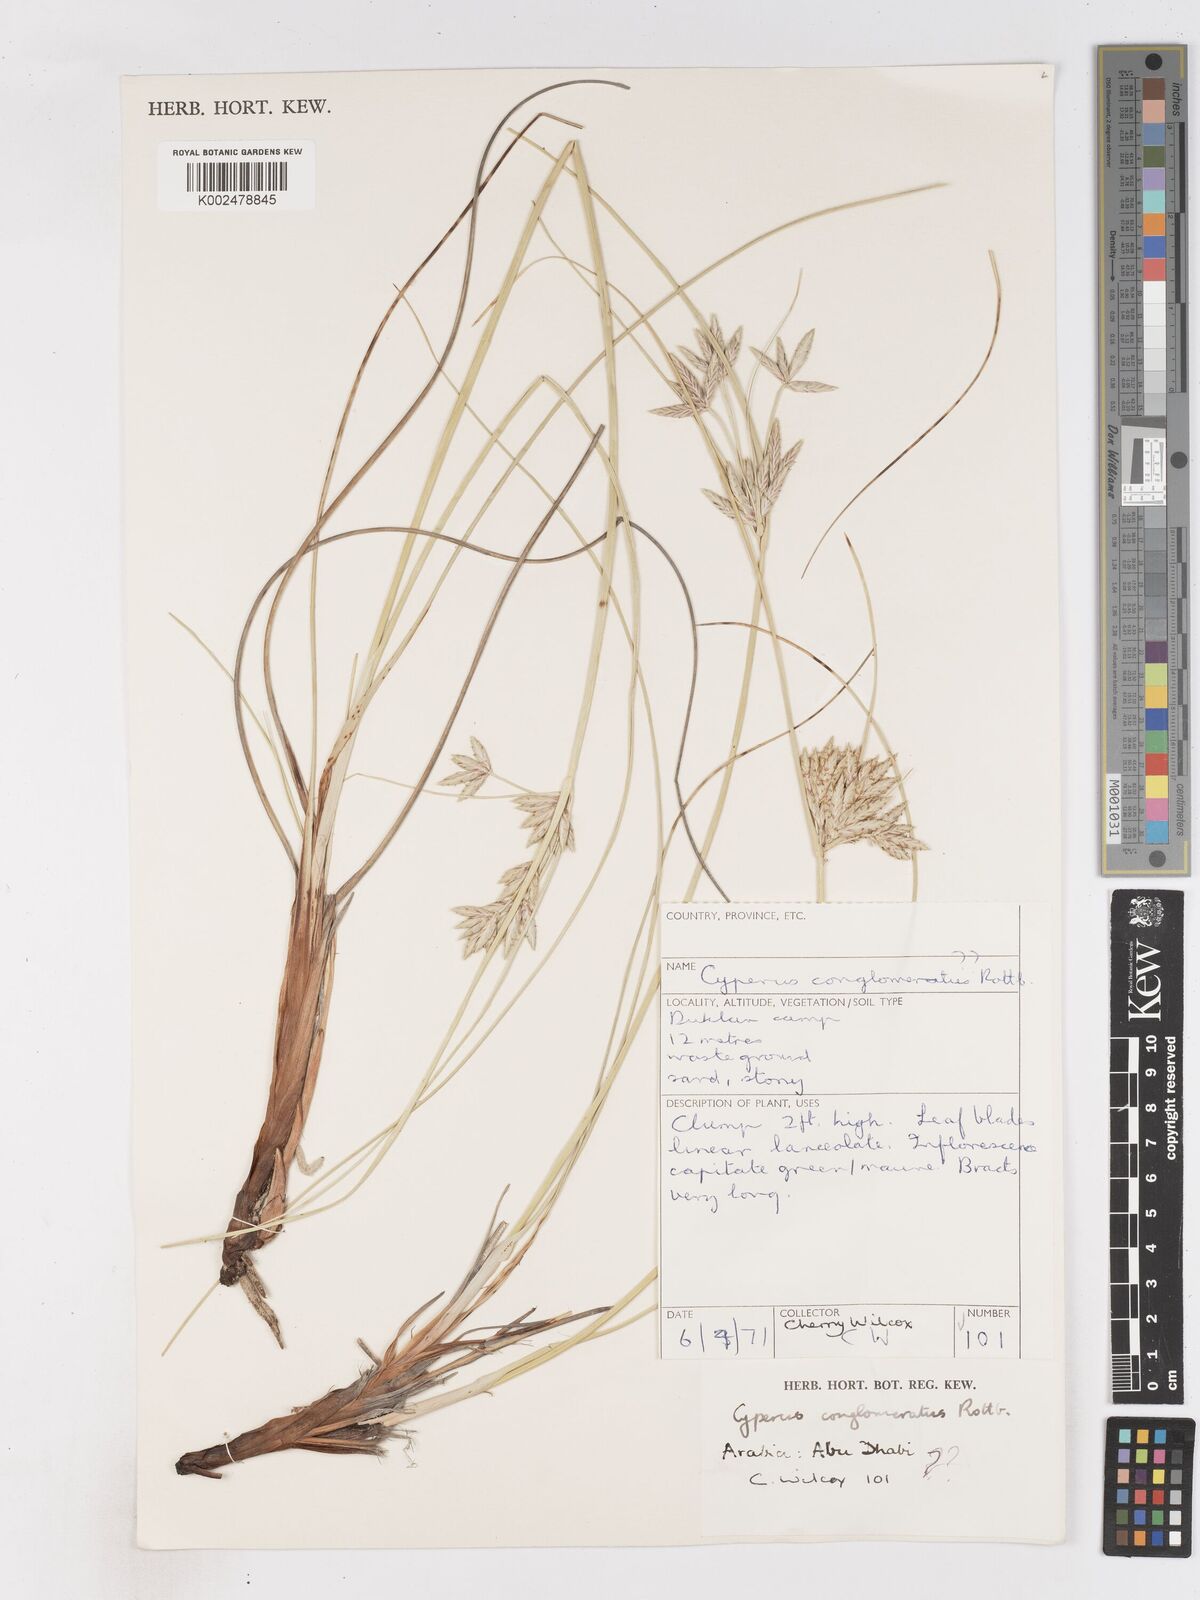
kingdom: Plantae
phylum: Tracheophyta
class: Liliopsida
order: Poales
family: Cyperaceae
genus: Cyperus
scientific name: Cyperus
